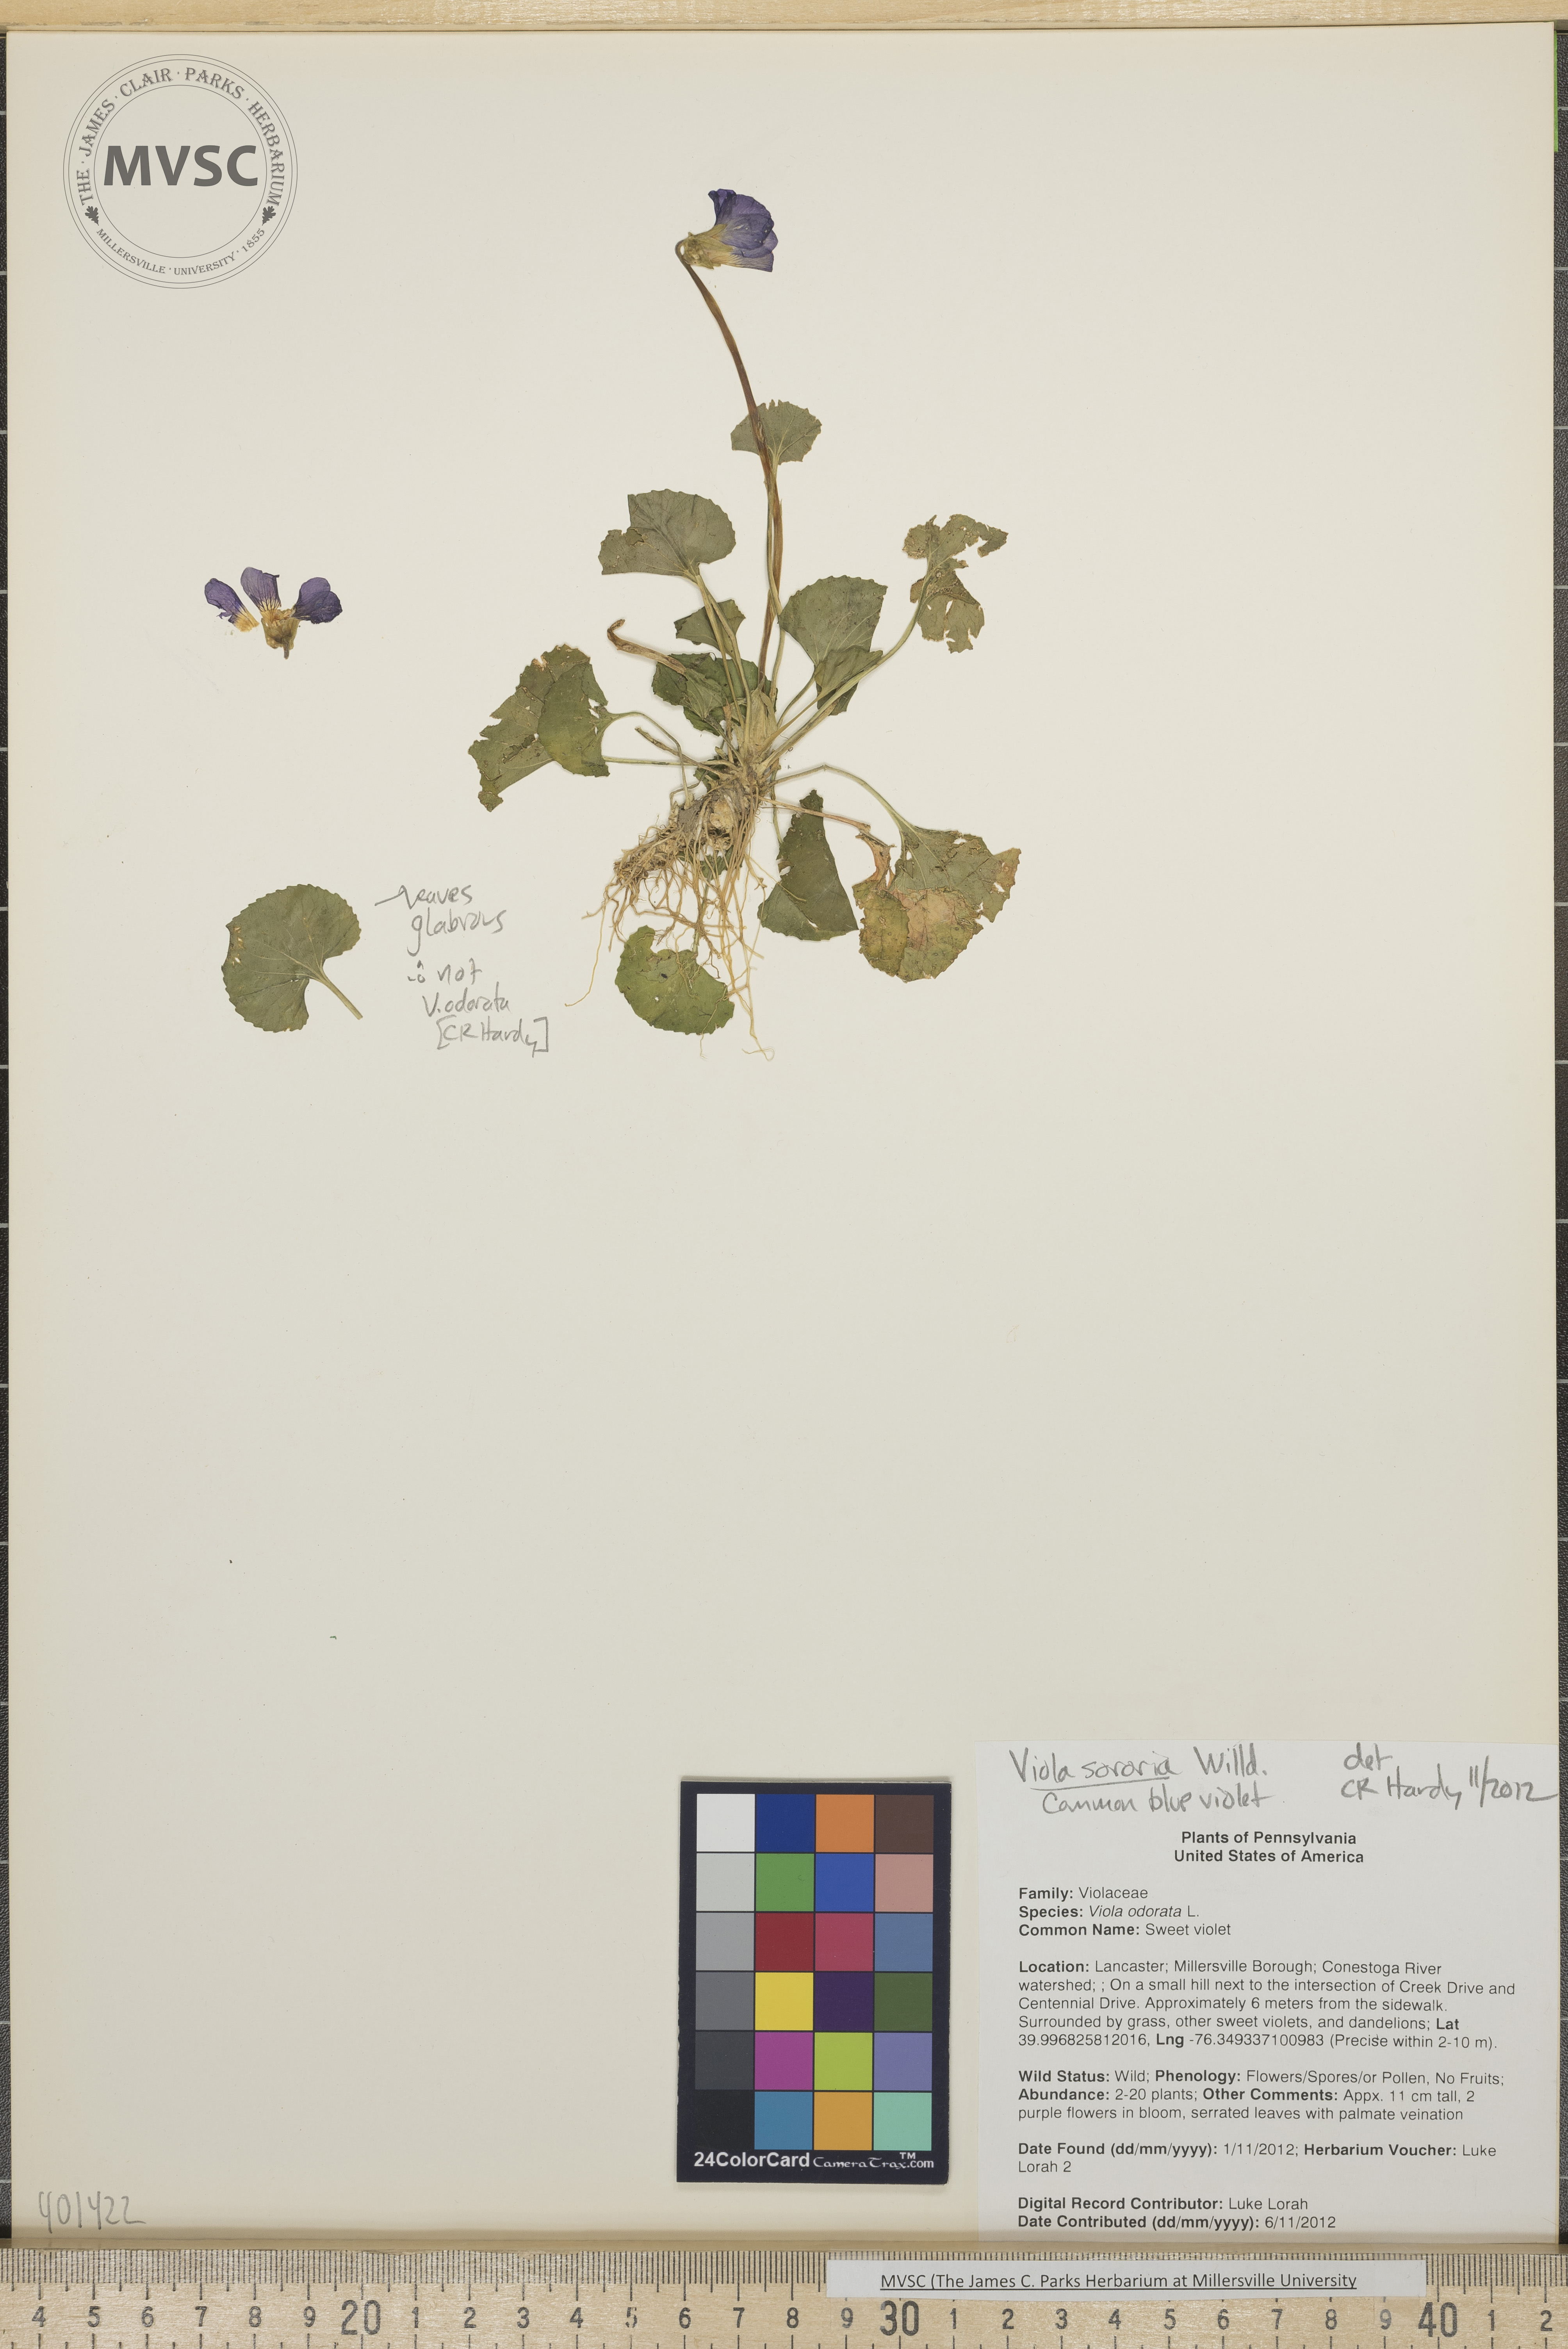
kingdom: Plantae
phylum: Tracheophyta
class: Magnoliopsida
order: Malpighiales
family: Violaceae
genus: Viola
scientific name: Viola sororia
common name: common blue violet
